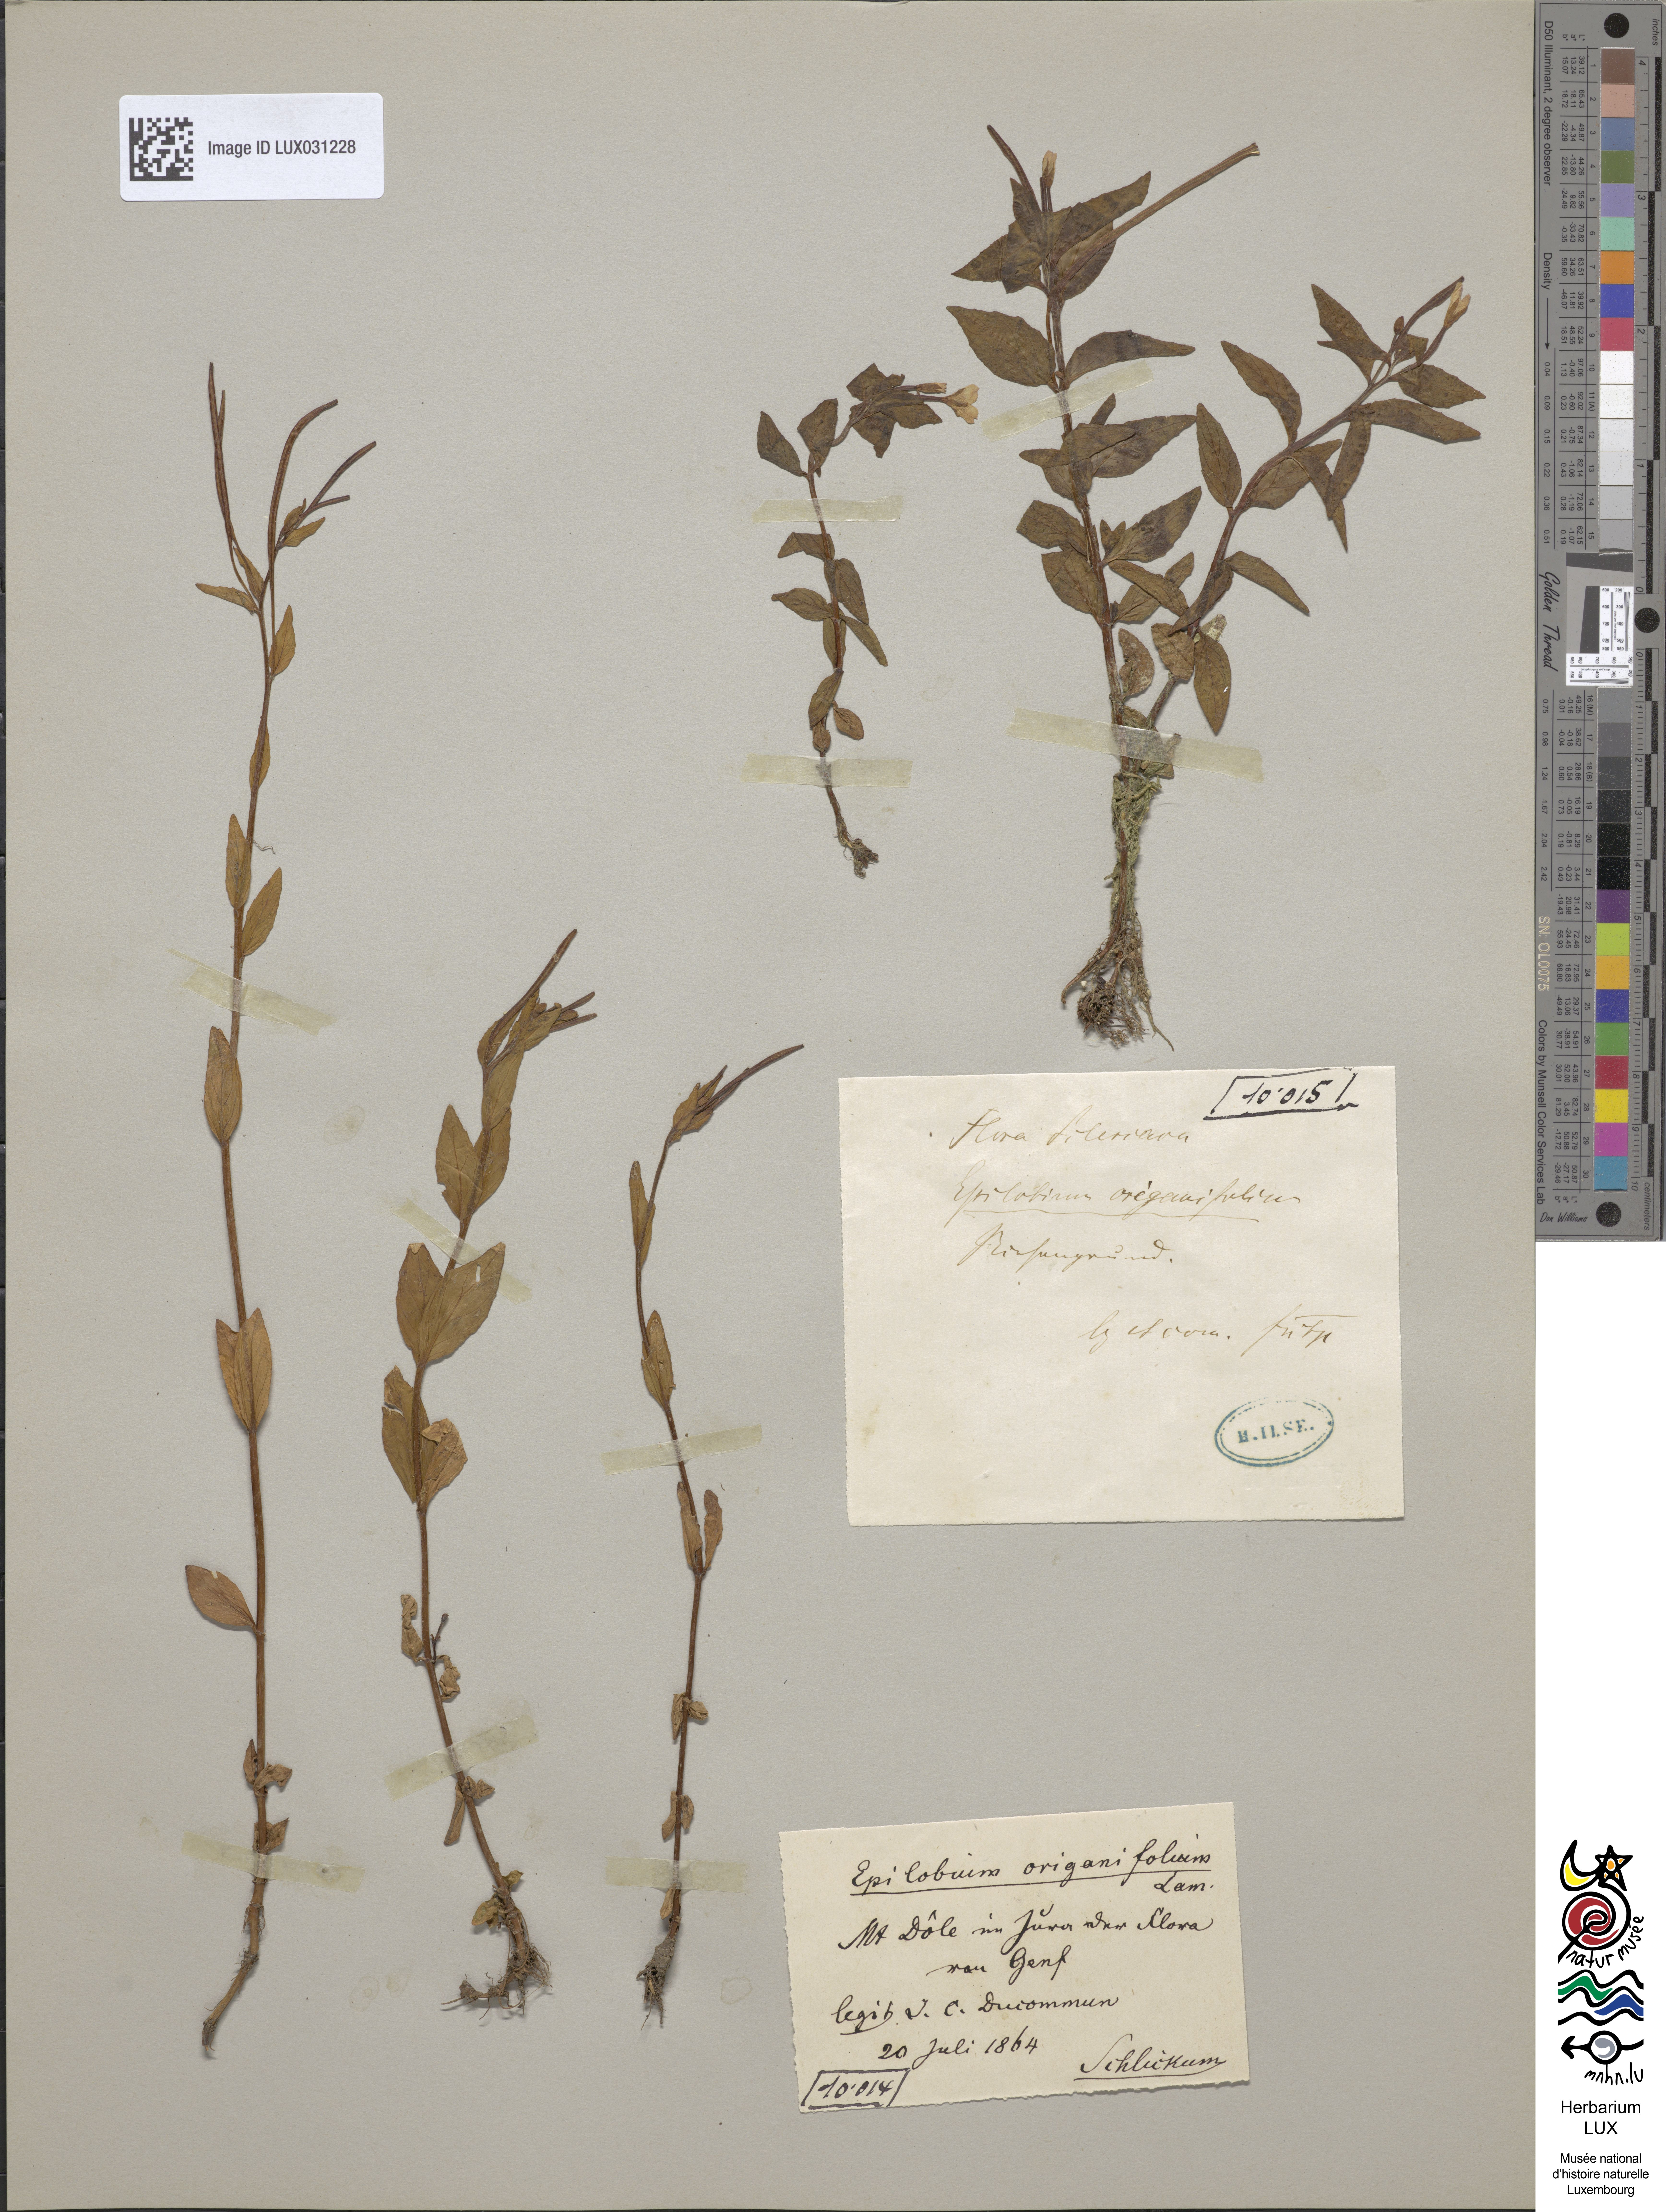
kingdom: Plantae
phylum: Tracheophyta
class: Magnoliopsida
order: Myrtales
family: Onagraceae
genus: Epilobium
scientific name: Epilobium alsinifolium
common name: Chickweed willowherb
